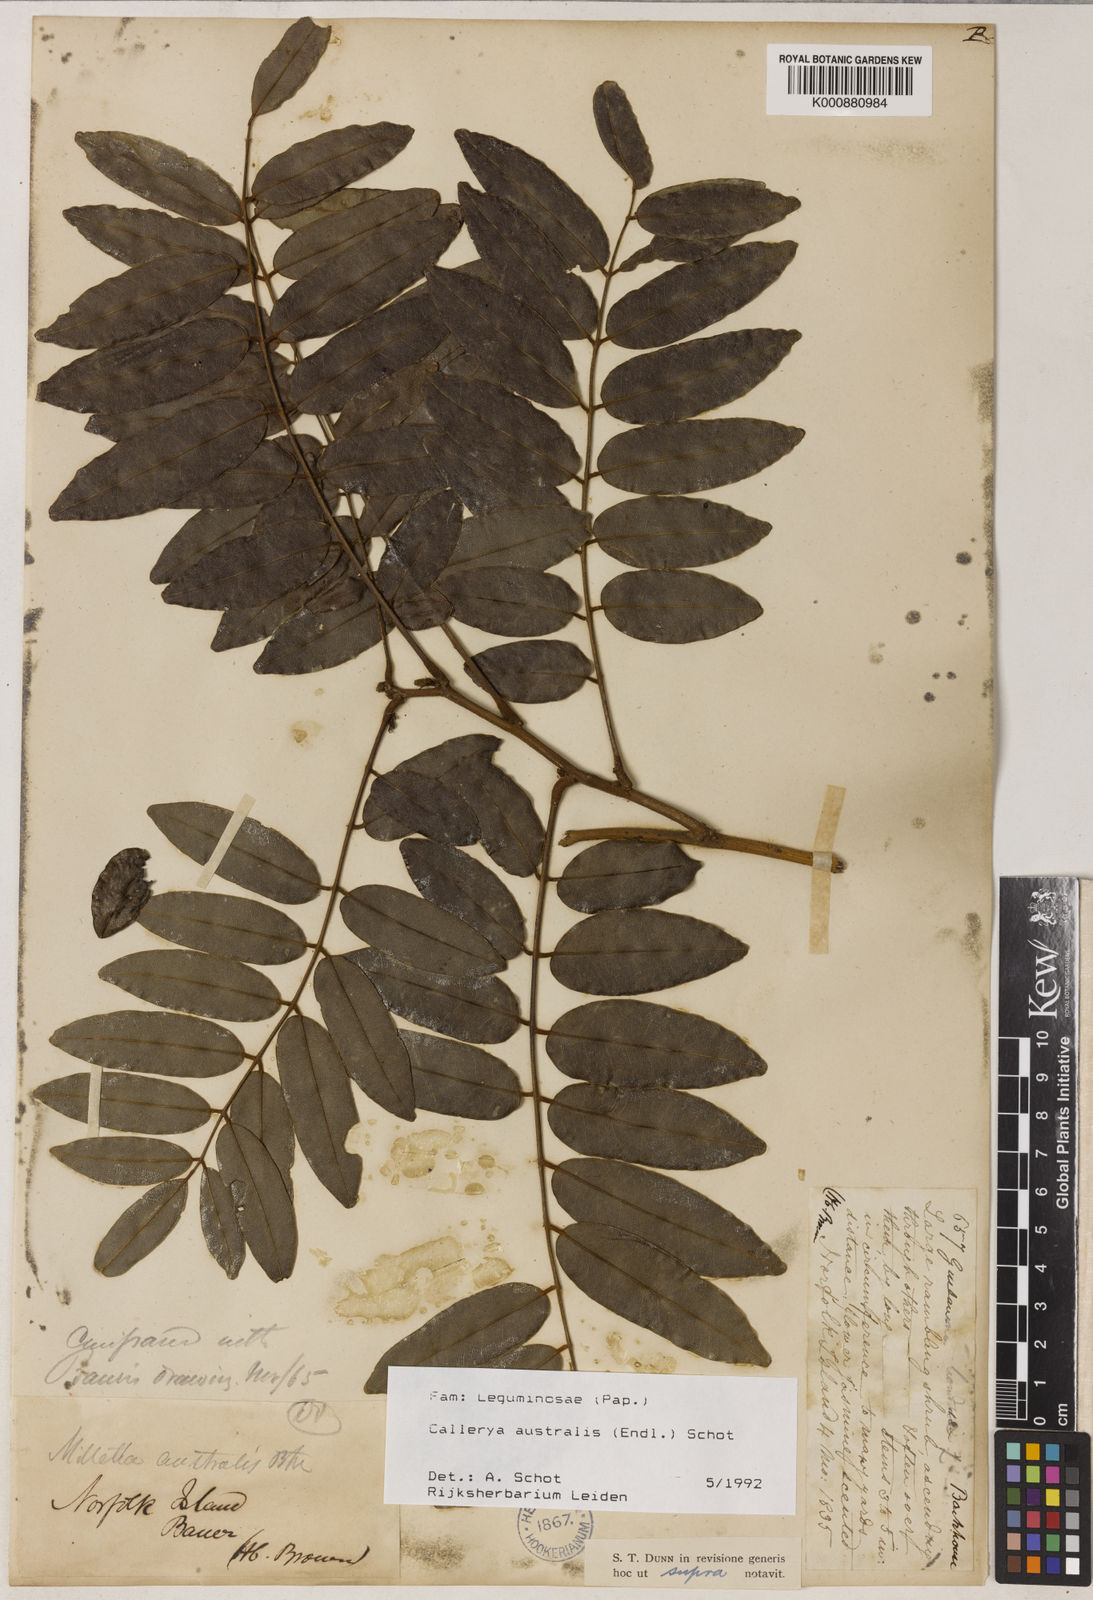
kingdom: Plantae
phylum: Tracheophyta
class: Magnoliopsida
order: Fabales
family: Fabaceae
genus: Austrocallerya
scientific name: Austrocallerya australis
